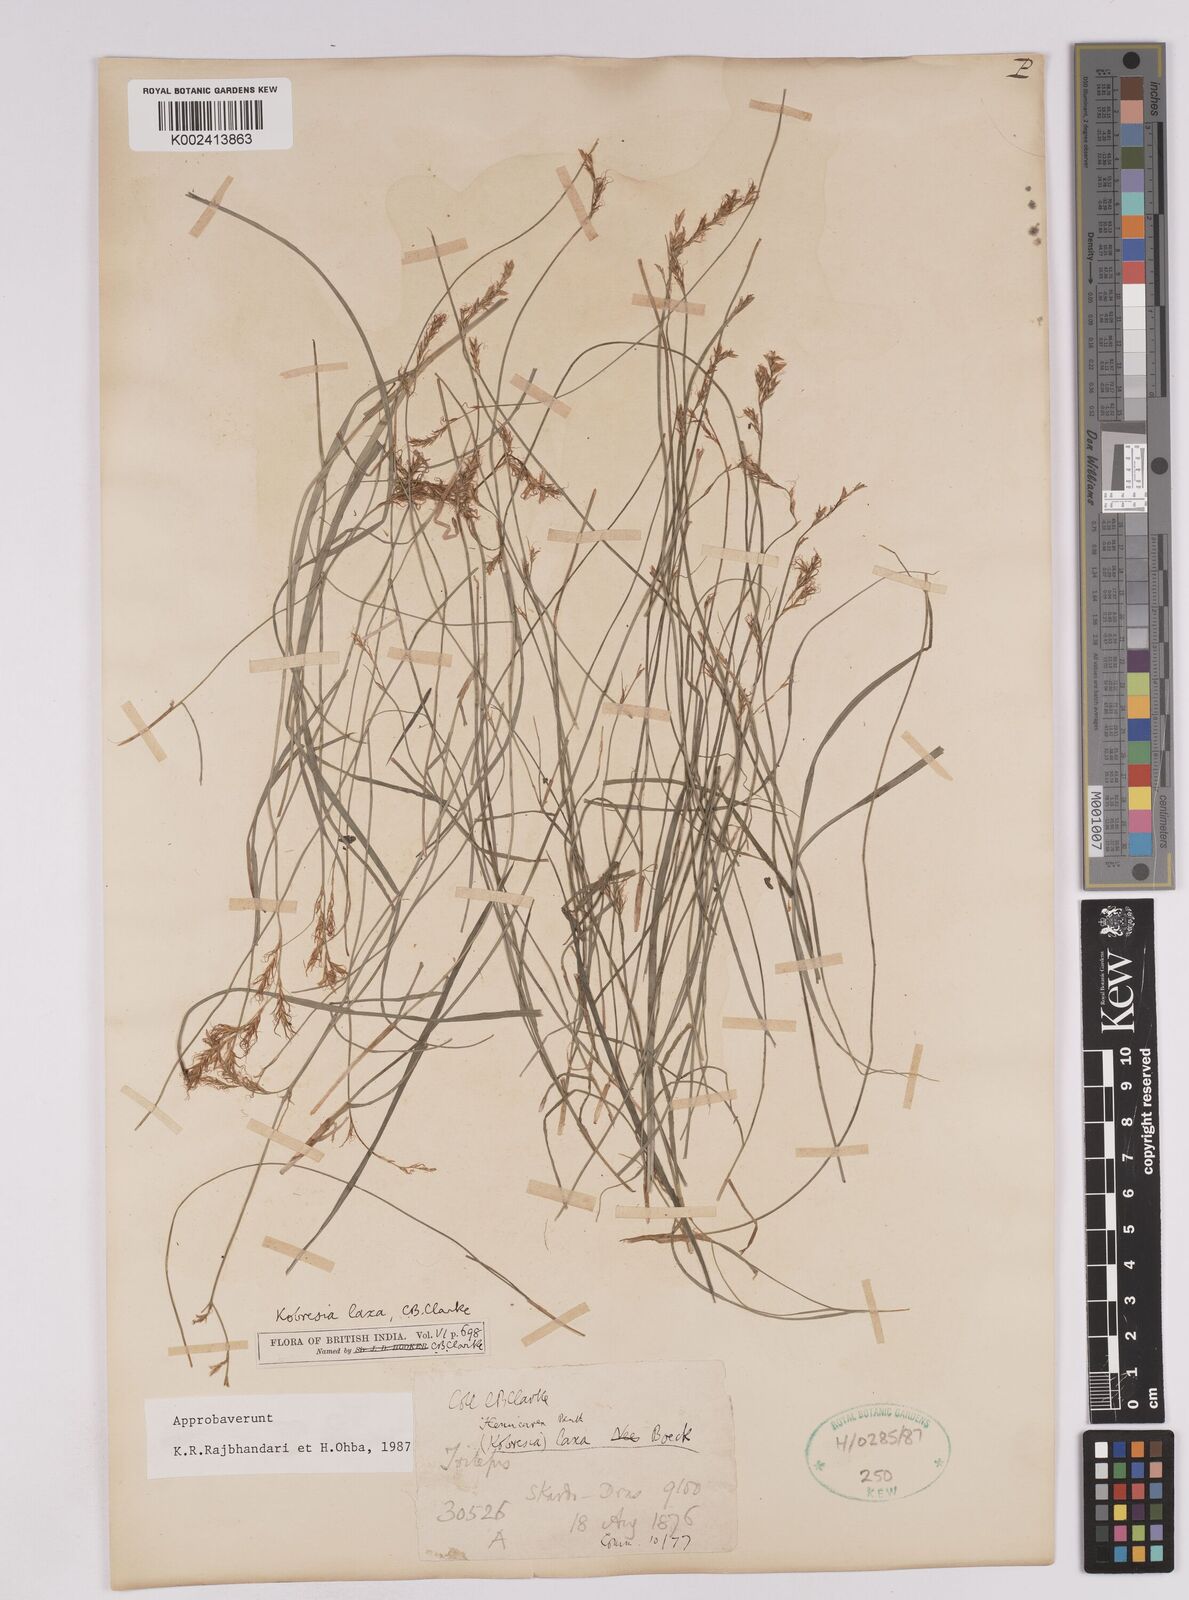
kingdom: Plantae
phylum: Tracheophyta
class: Liliopsida
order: Poales
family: Cyperaceae
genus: Carex
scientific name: Carex pseudolaxa
